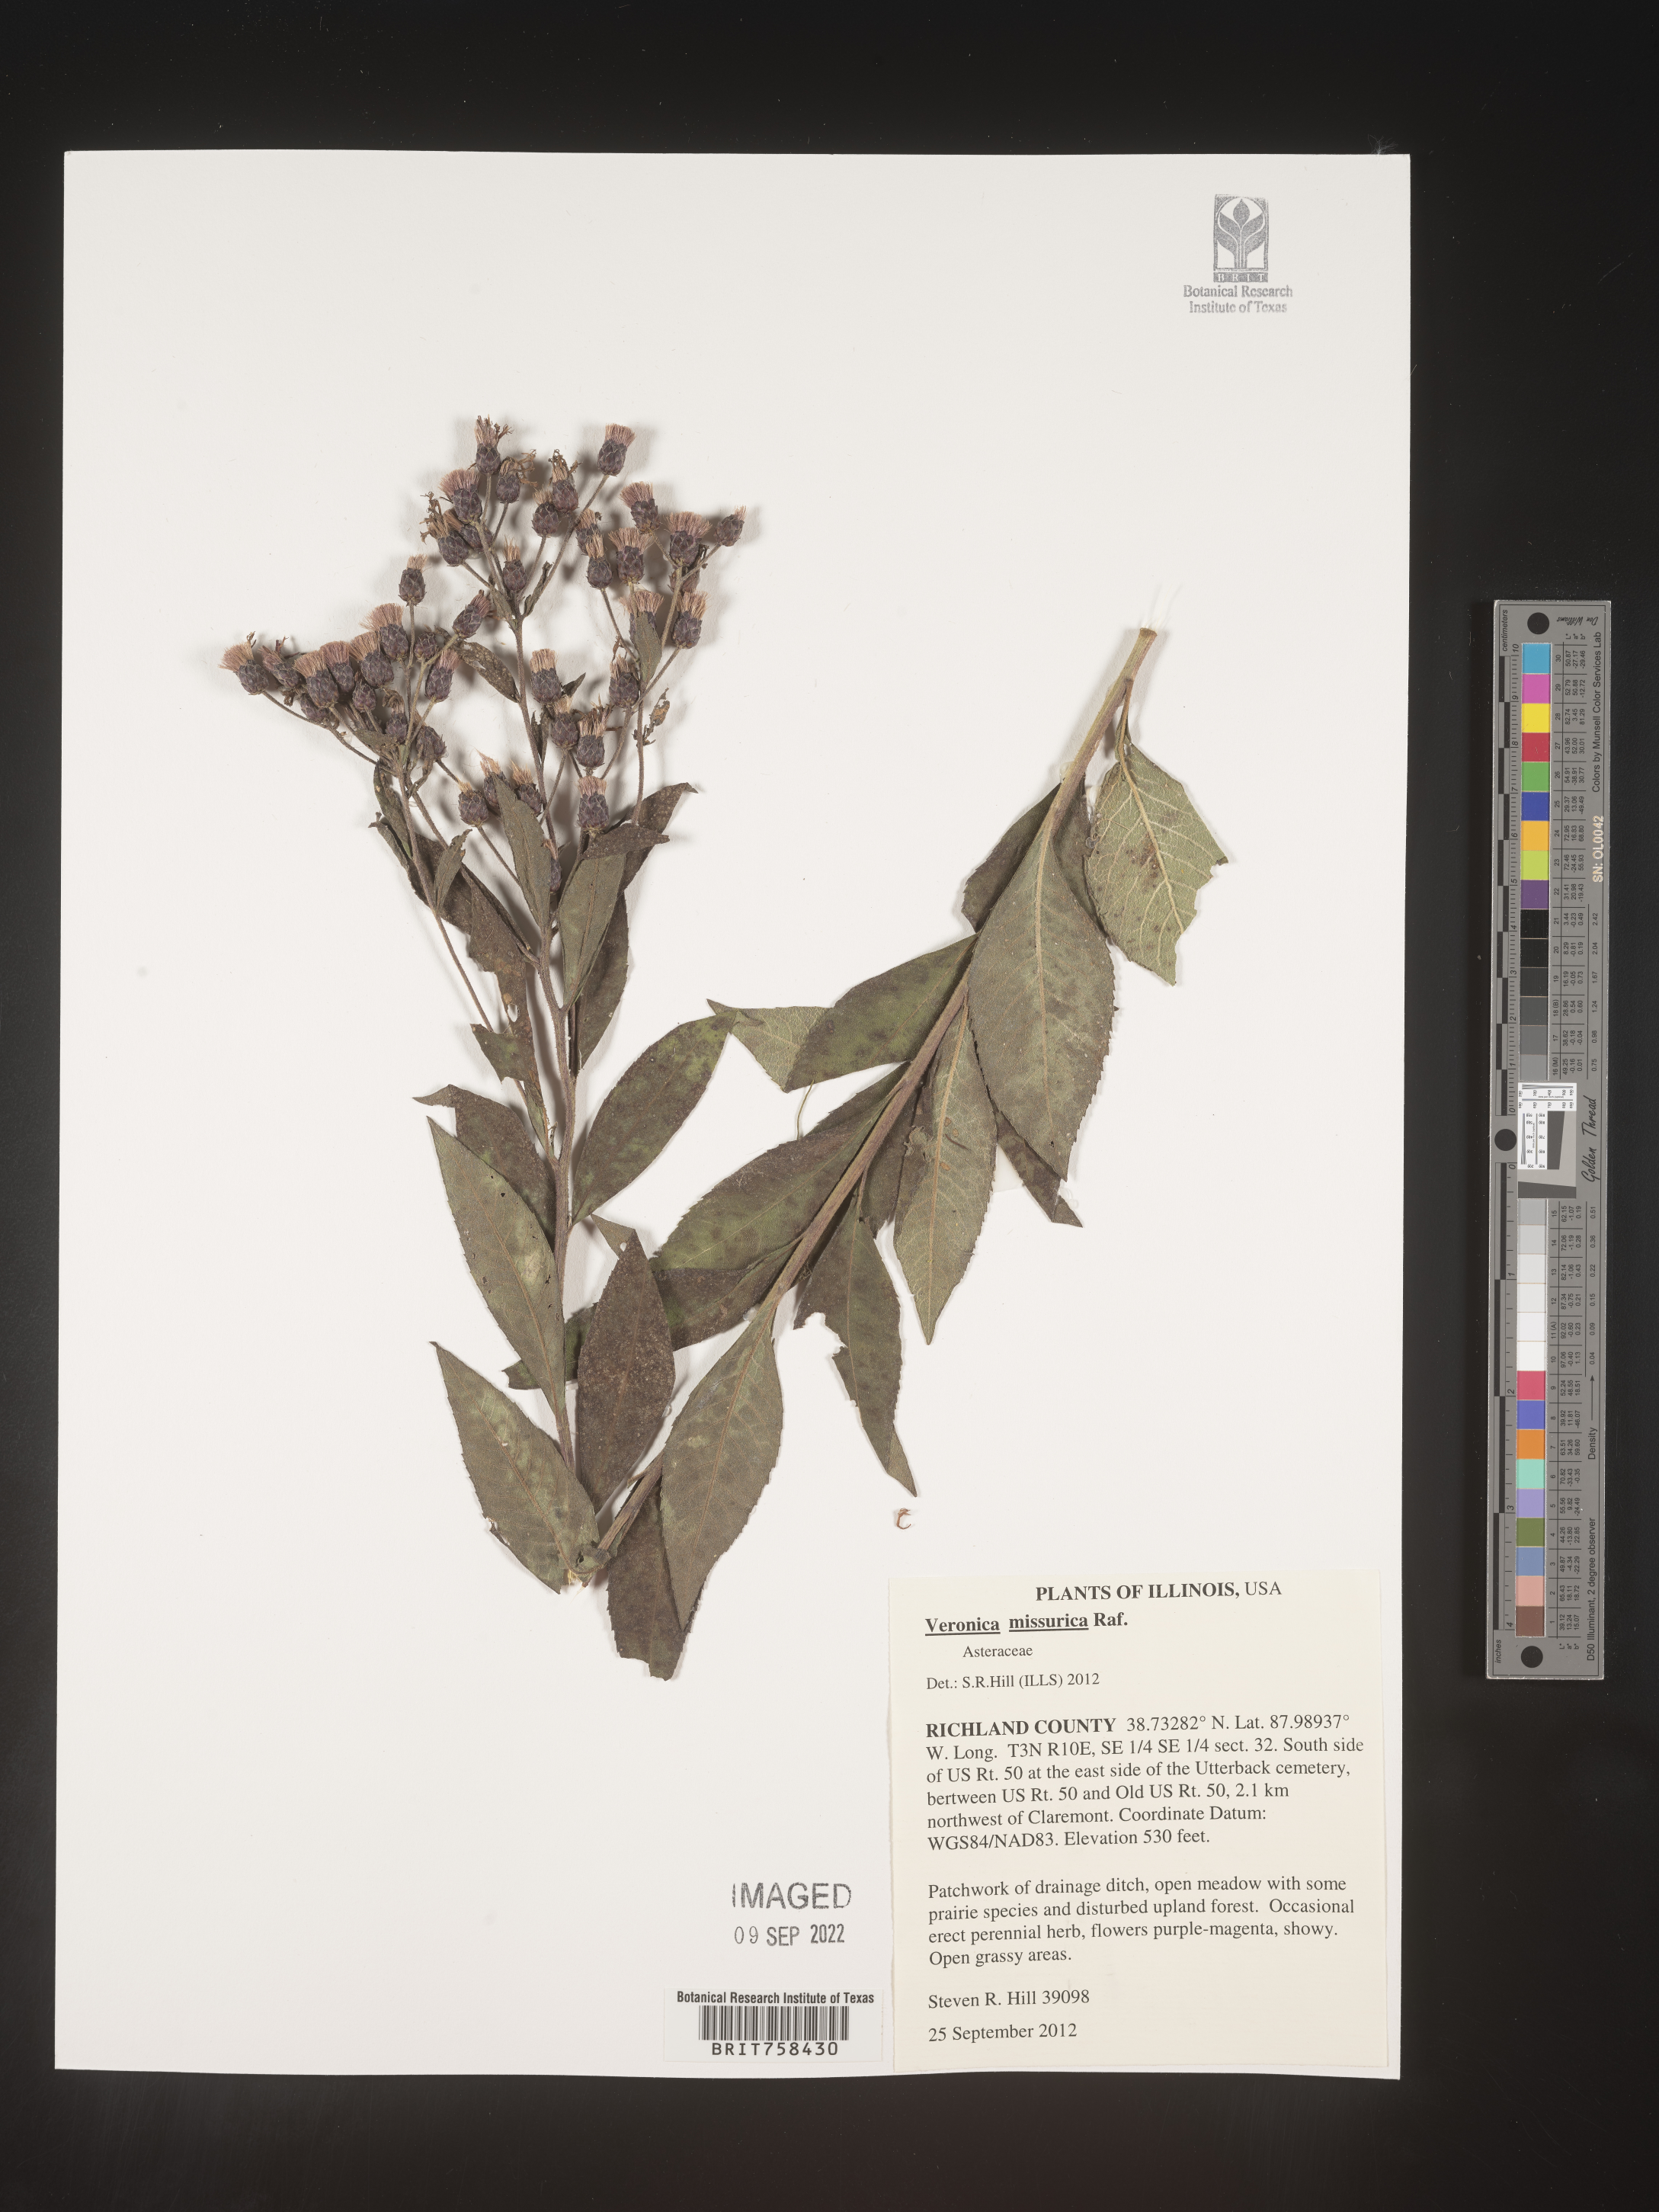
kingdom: Plantae
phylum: Tracheophyta
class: Magnoliopsida
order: Asterales
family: Asteraceae
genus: Vernonia
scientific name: Vernonia missurica
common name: Missouri ironweed
